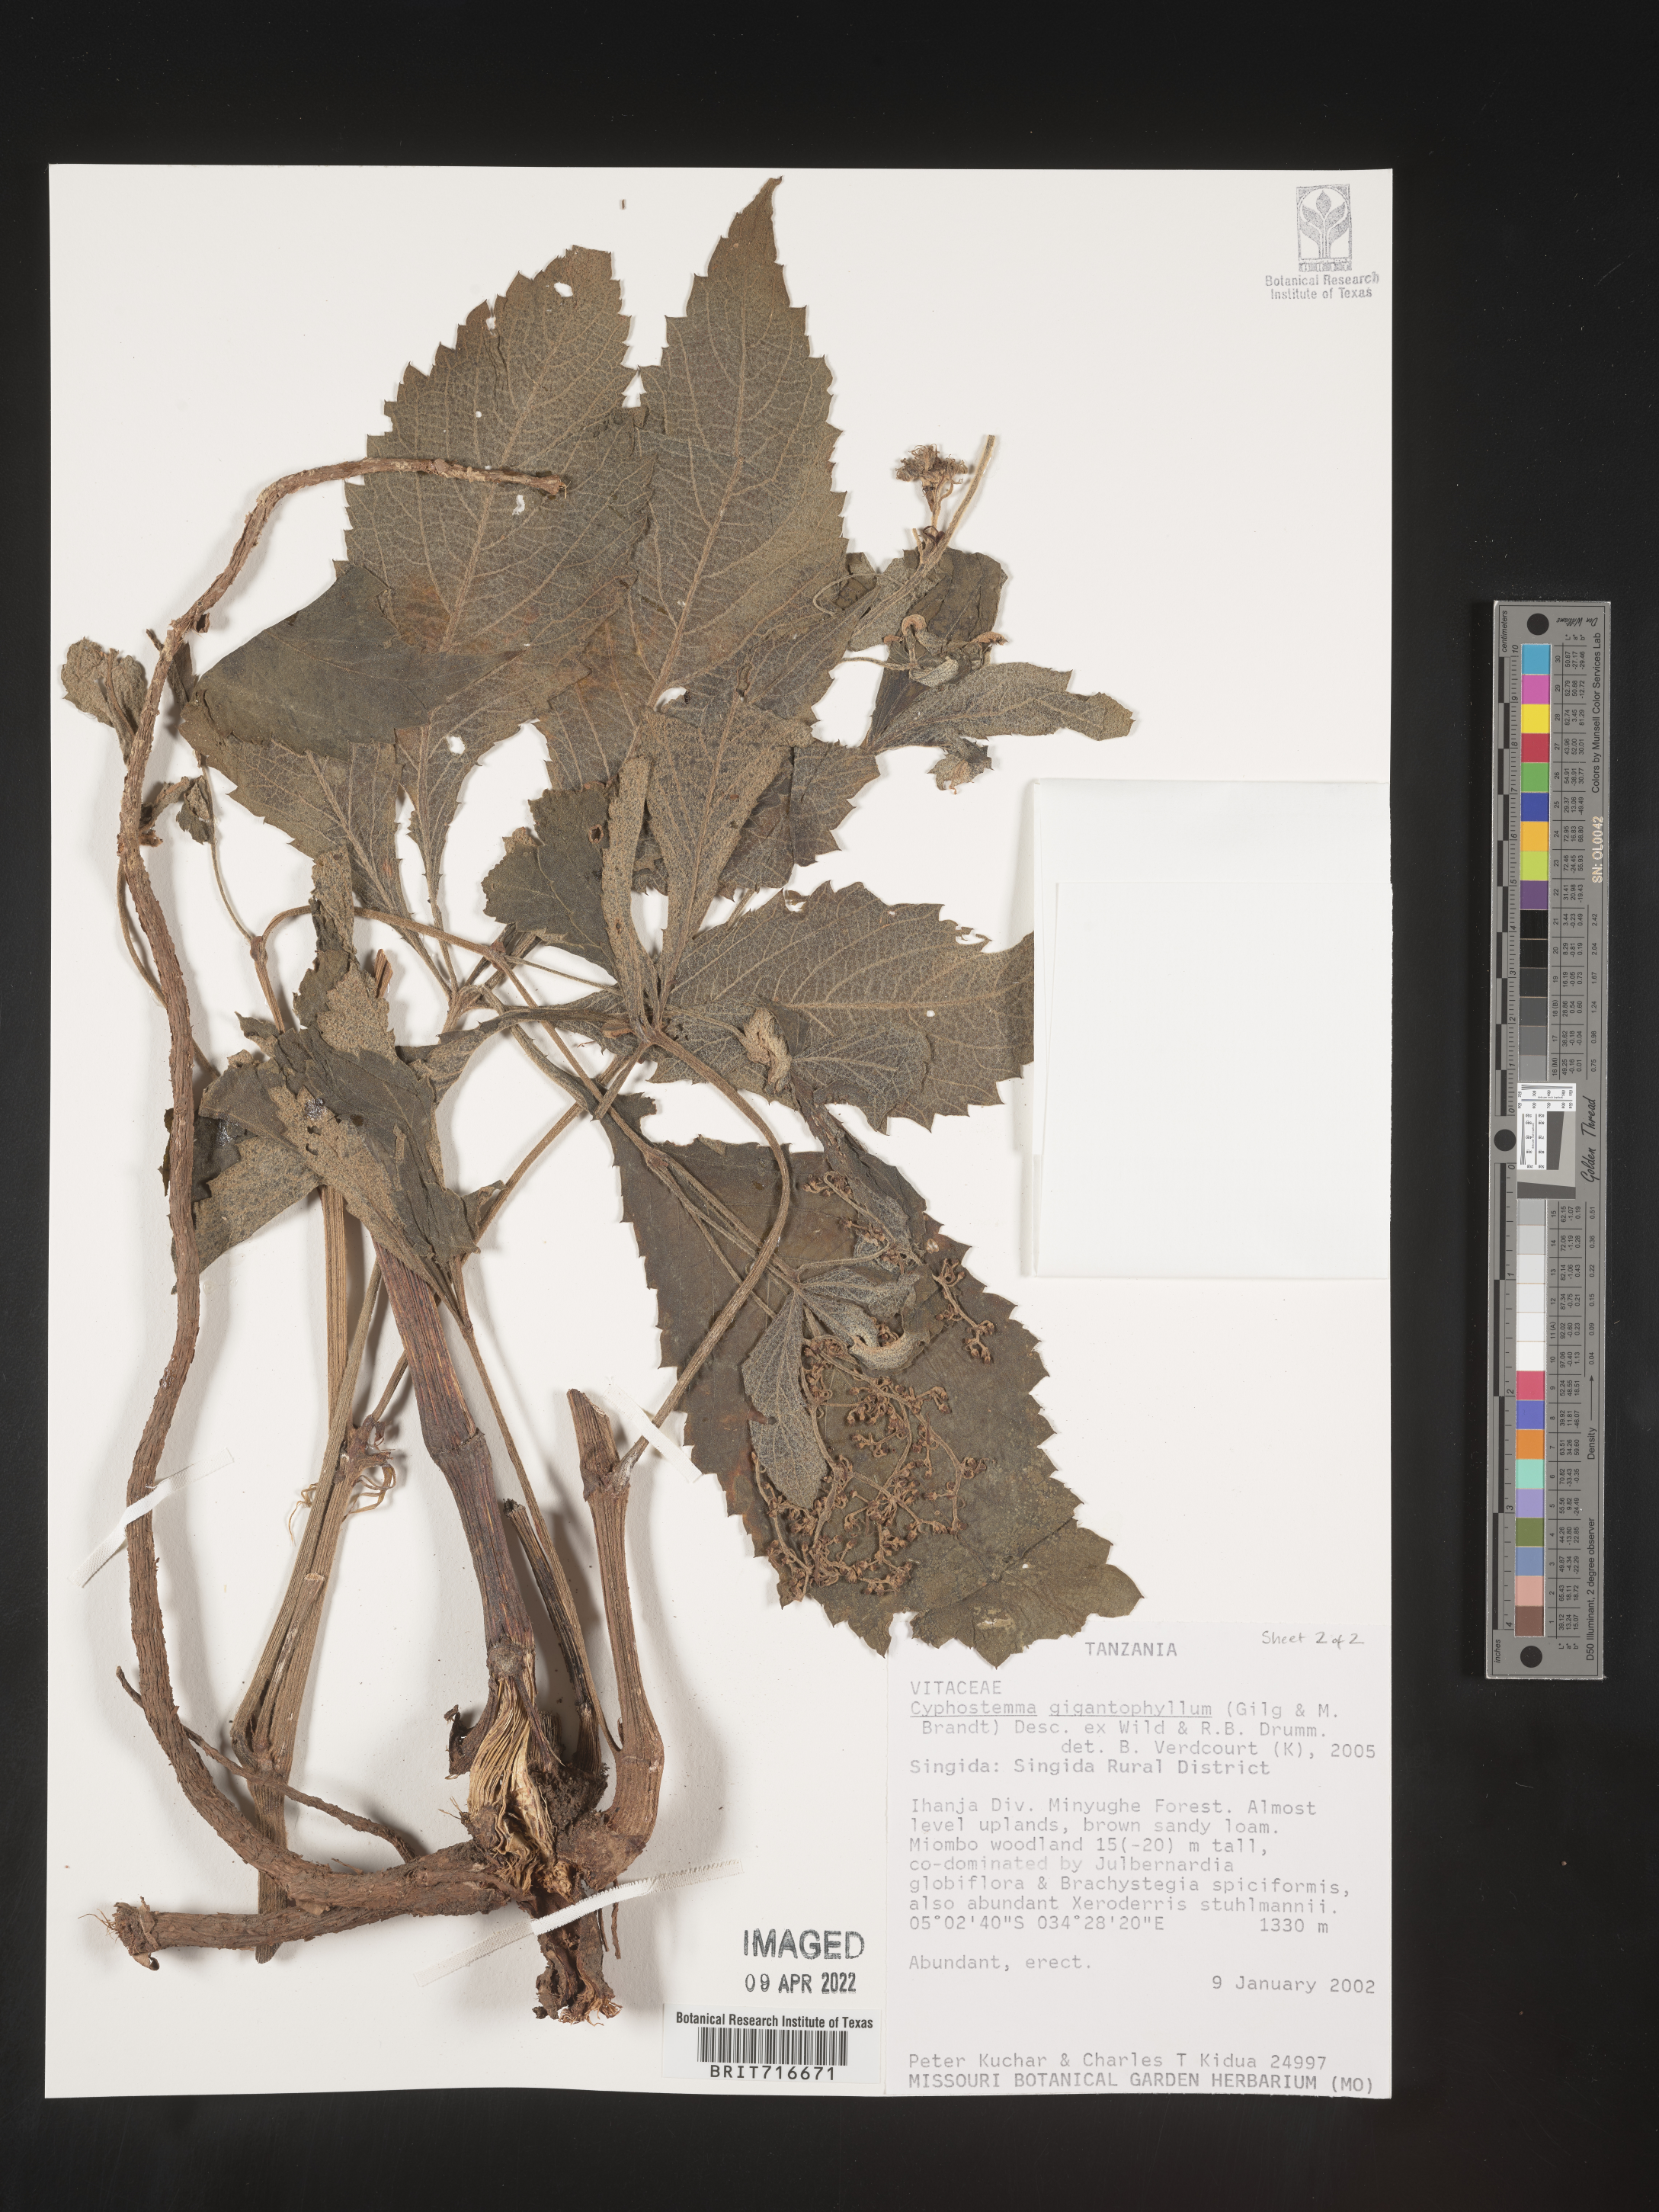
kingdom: Plantae
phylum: Tracheophyta
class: Magnoliopsida
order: Vitales
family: Vitaceae
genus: Cyphostemma
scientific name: Cyphostemma
